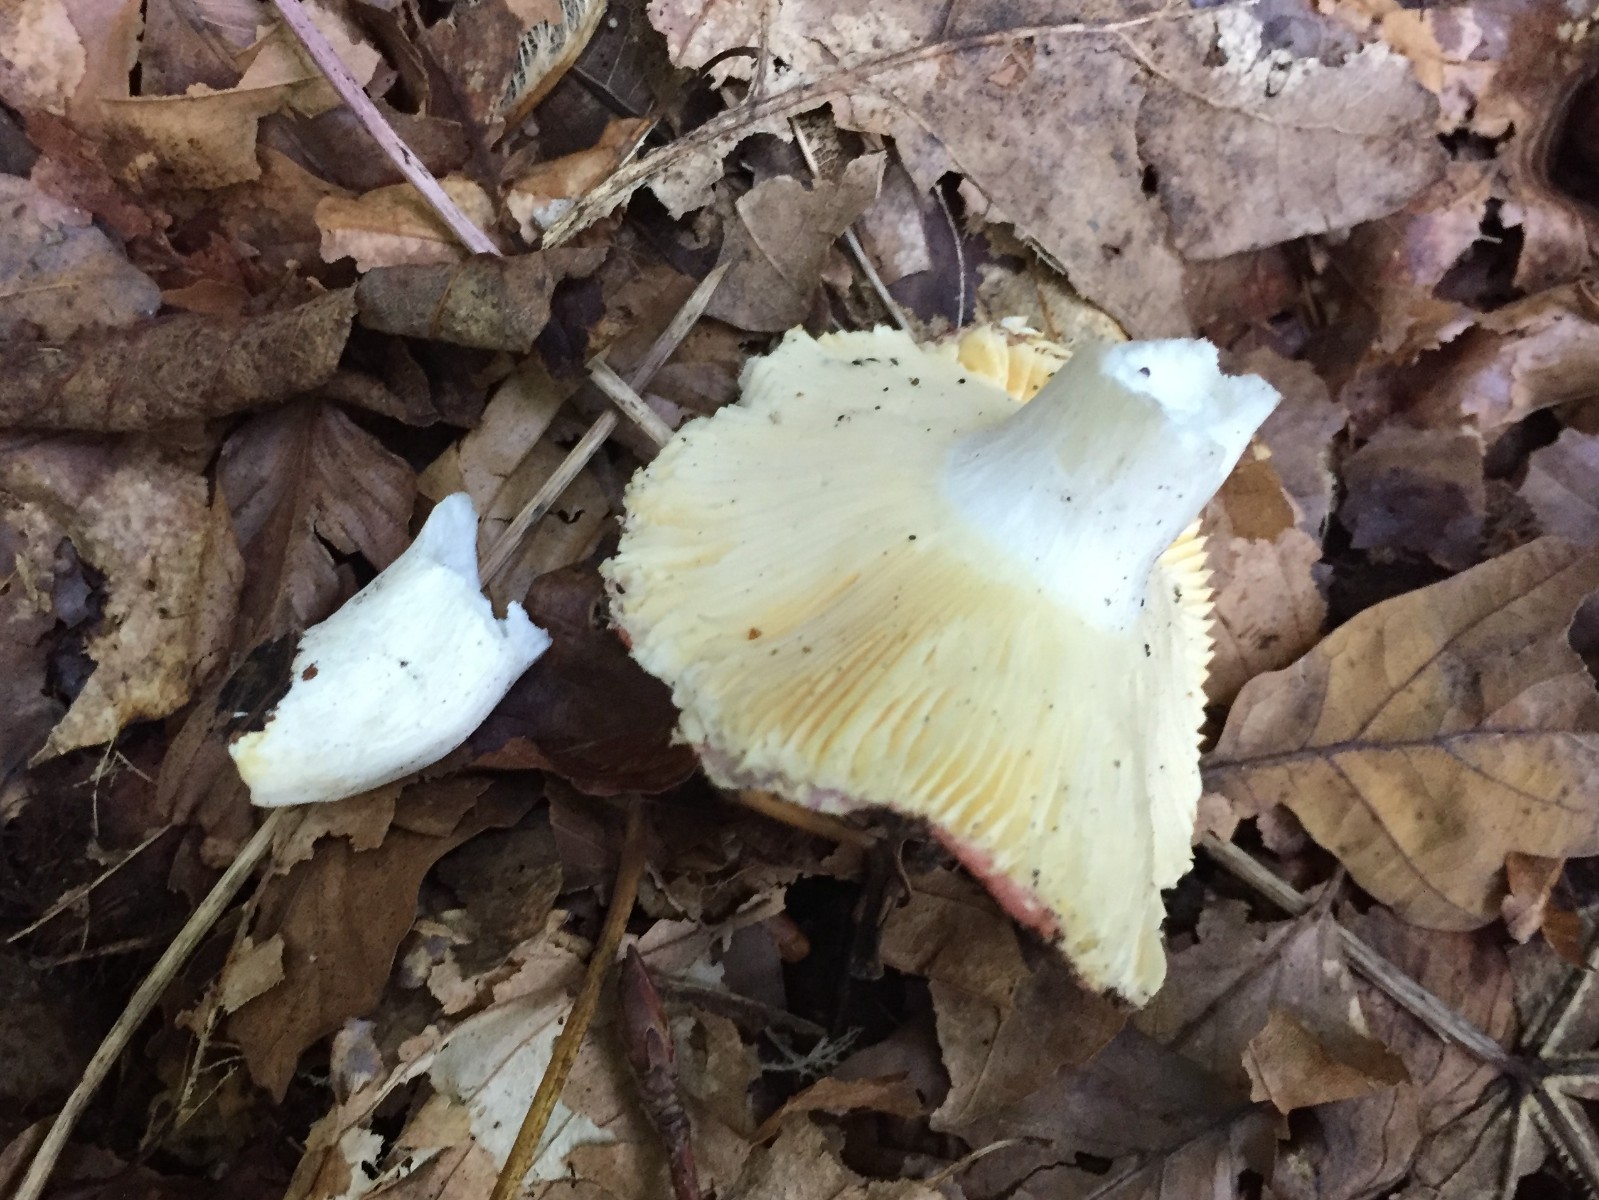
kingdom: Fungi
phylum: Basidiomycota
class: Agaricomycetes
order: Russulales
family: Russulaceae
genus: Russula
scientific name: Russula veternosa
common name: blødkødet skørhat
